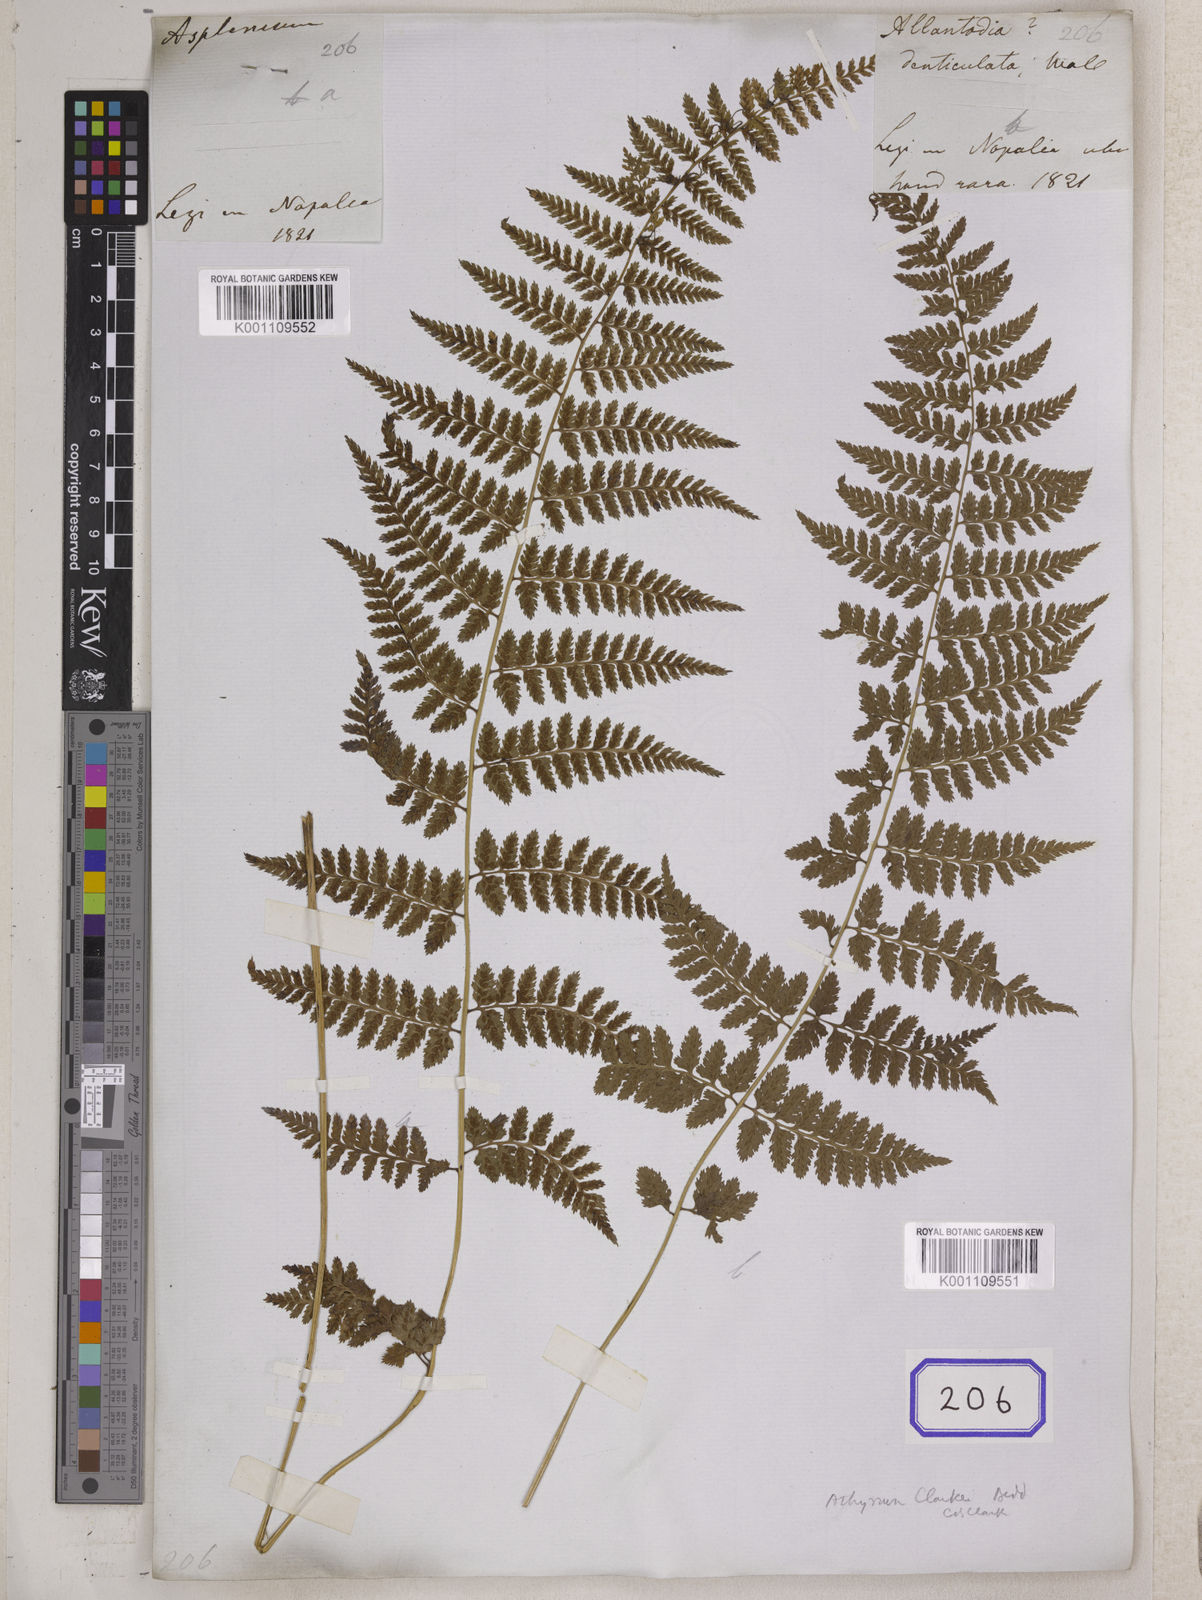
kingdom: Plantae
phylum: Tracheophyta
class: Polypodiopsida
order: Polypodiales
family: Athyriaceae
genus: Athyrium
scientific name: Athyrium strigillosum
